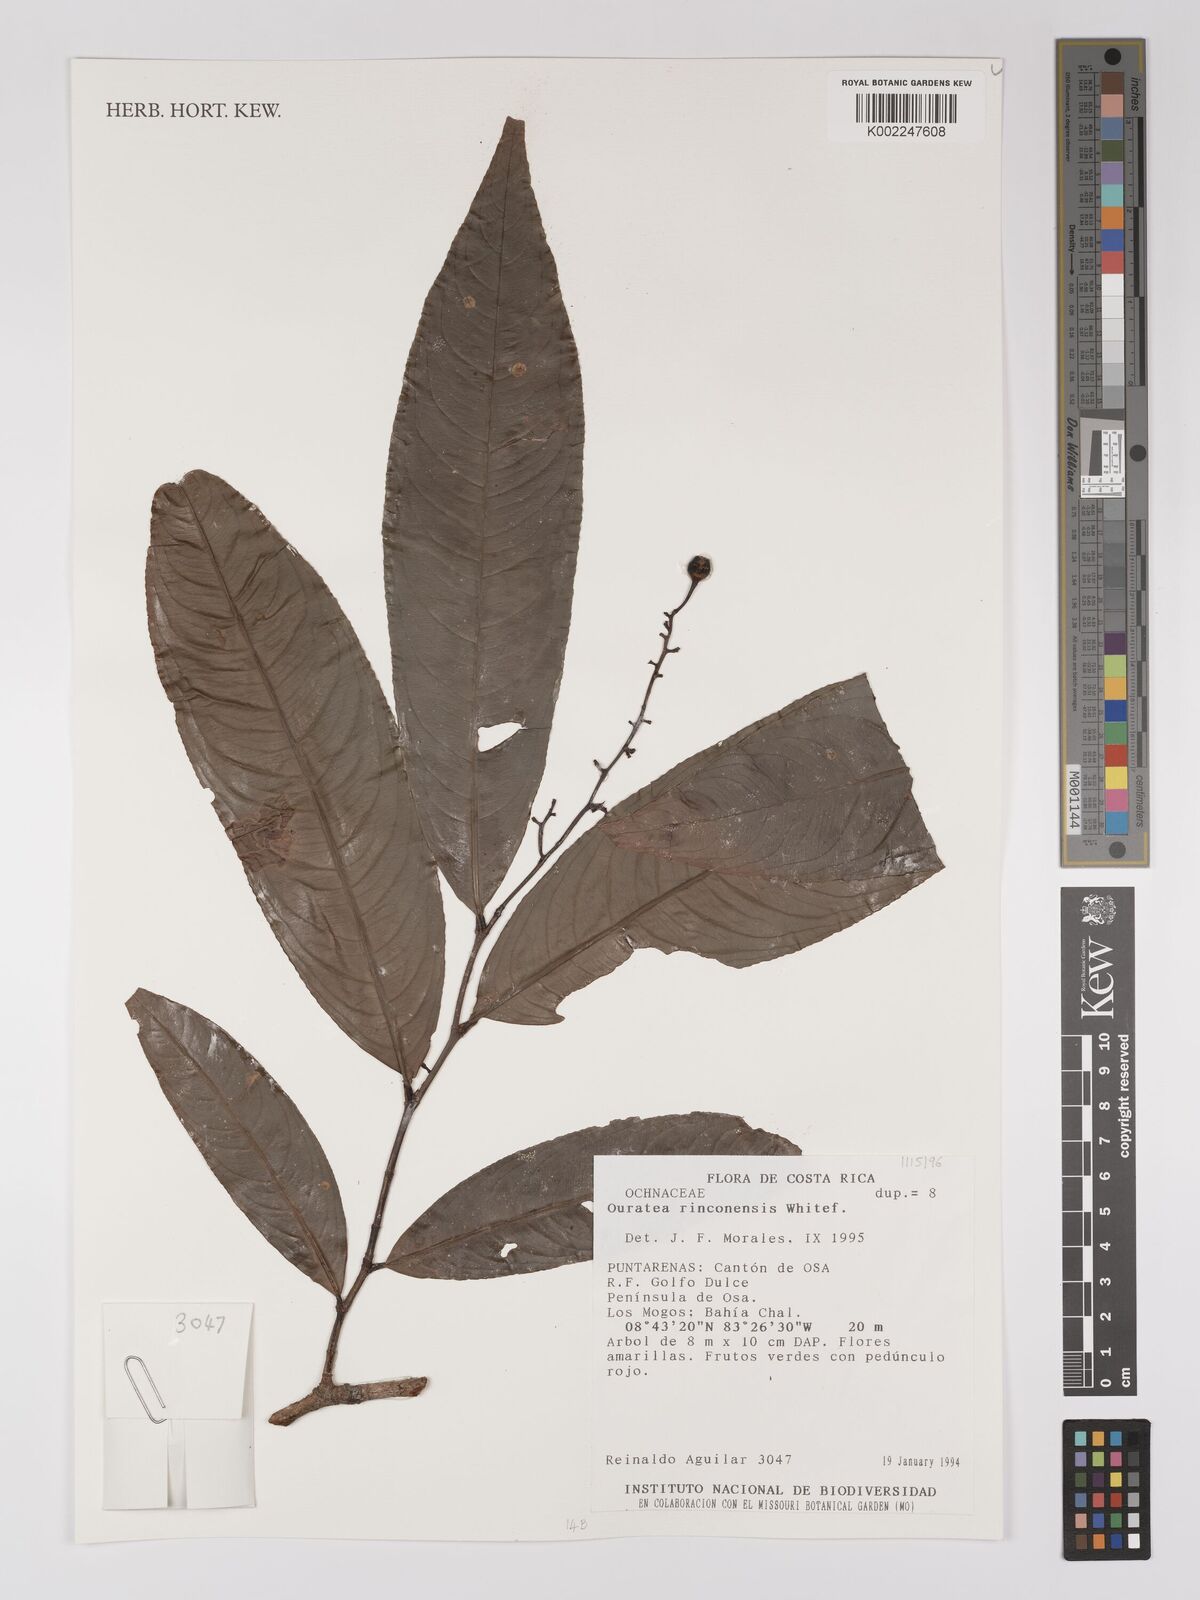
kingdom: Plantae
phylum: Tracheophyta
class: Magnoliopsida
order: Malpighiales
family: Ochnaceae
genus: Ouratea
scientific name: Ouratea rinconensis
